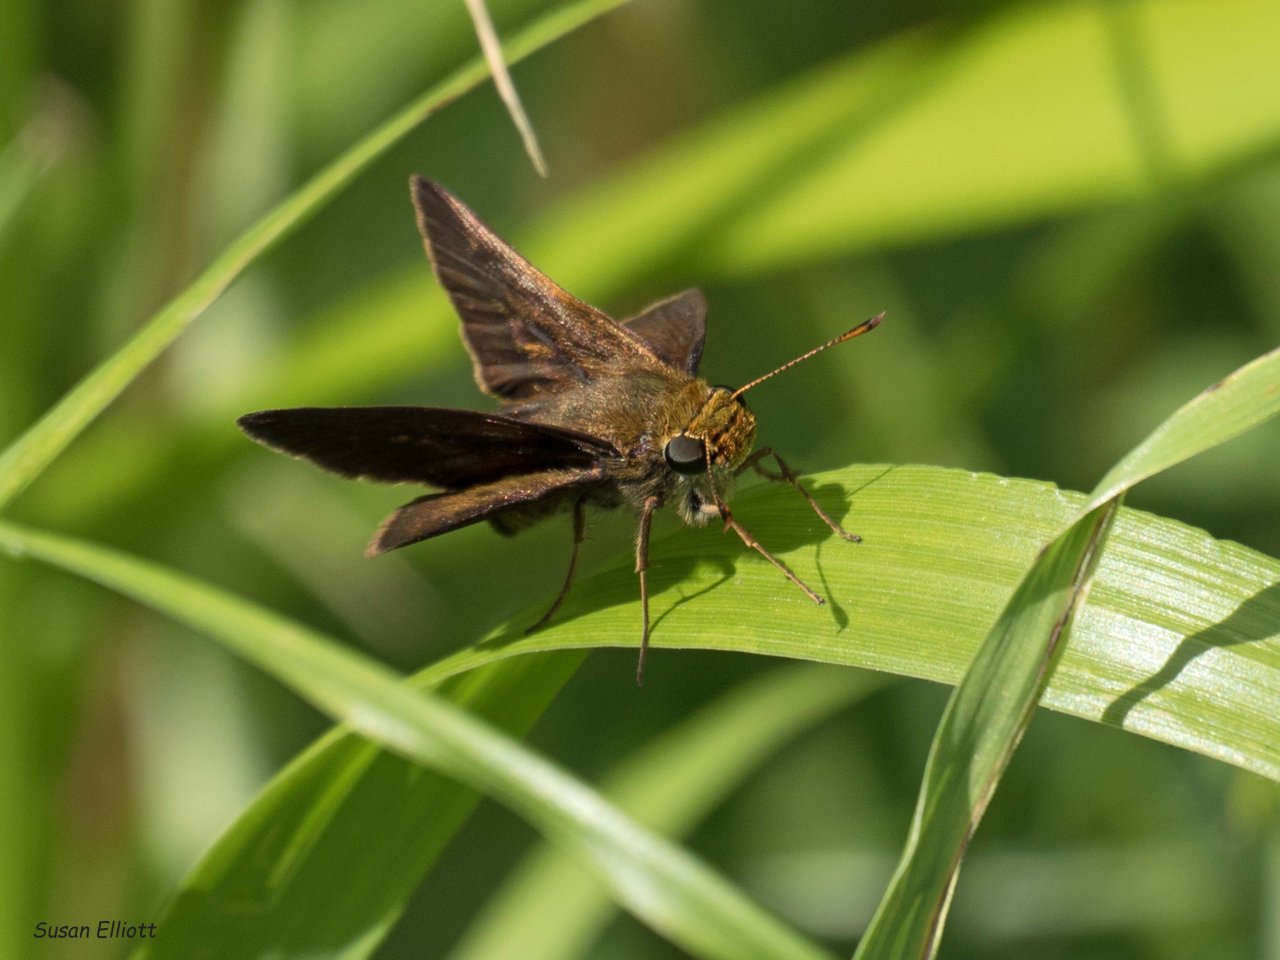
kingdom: Animalia
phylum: Arthropoda
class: Insecta
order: Lepidoptera
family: Hesperiidae
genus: Euphyes
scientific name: Euphyes vestris
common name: Dun Skipper
